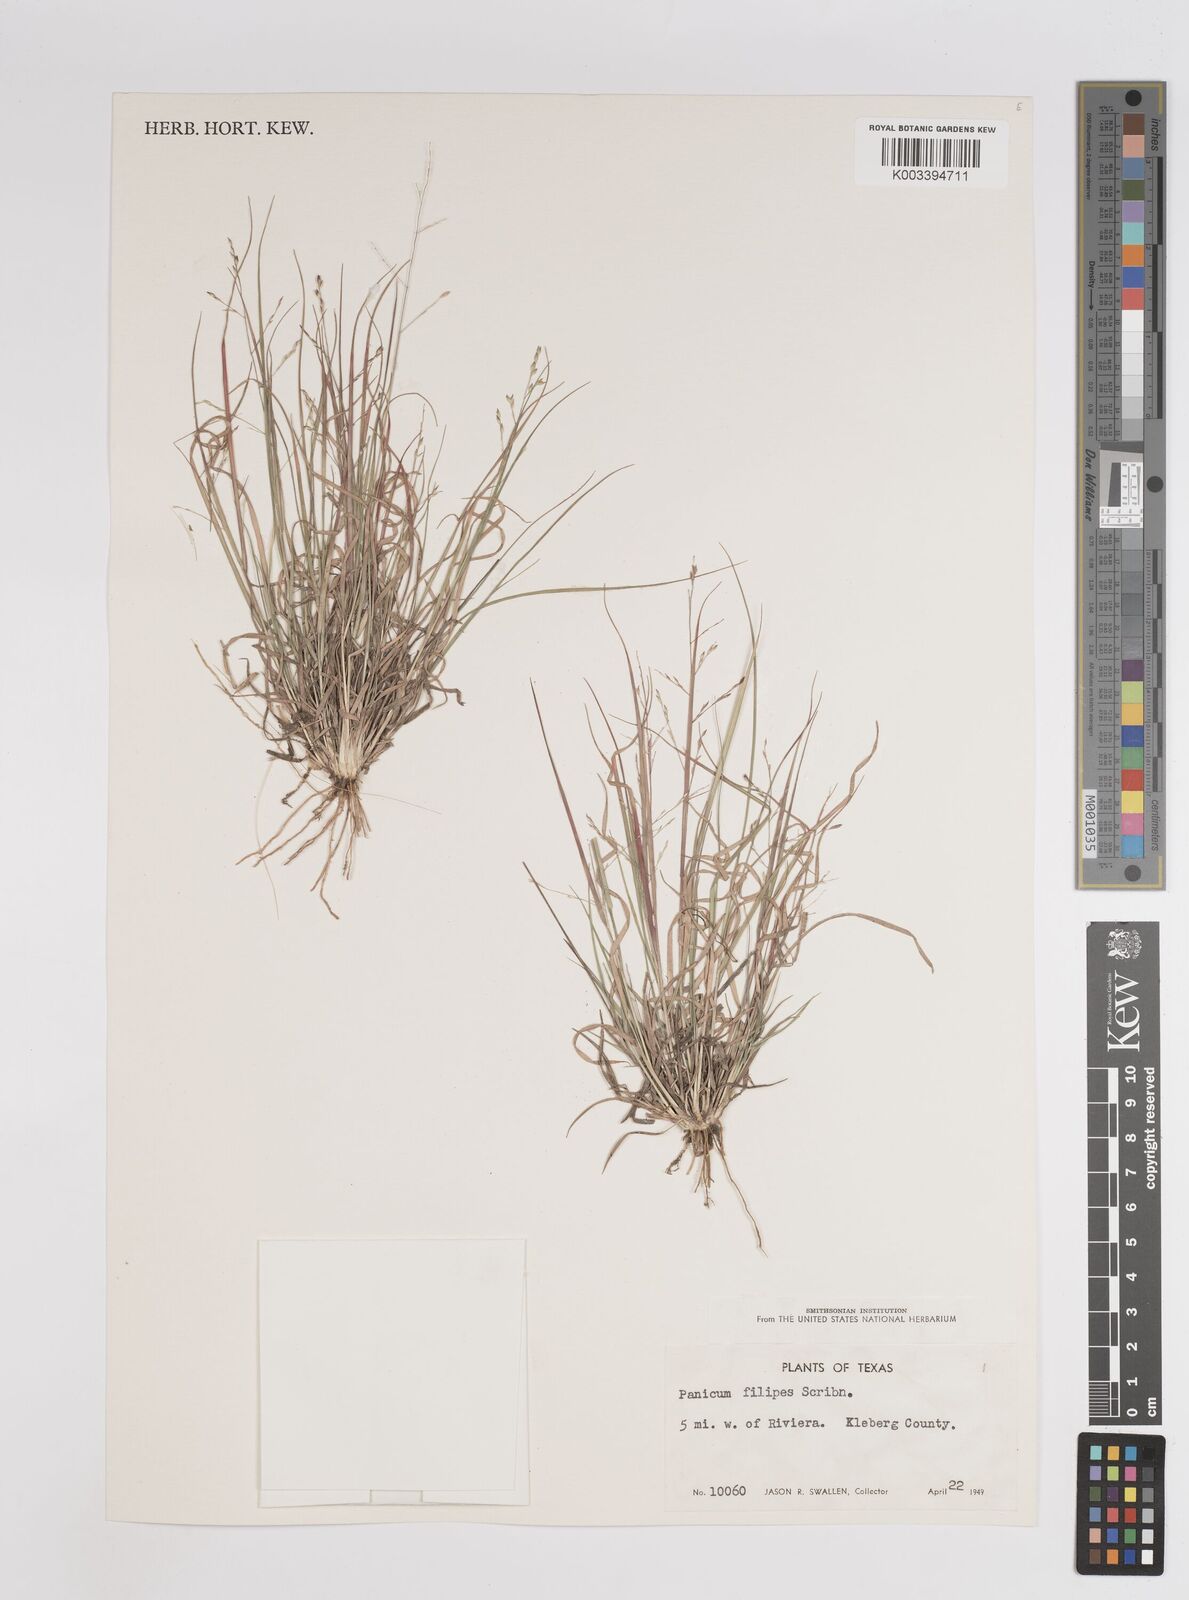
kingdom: Plantae
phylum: Tracheophyta
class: Liliopsida
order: Poales
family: Poaceae
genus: Panicum
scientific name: Panicum hallii
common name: Hall's witchgrass
